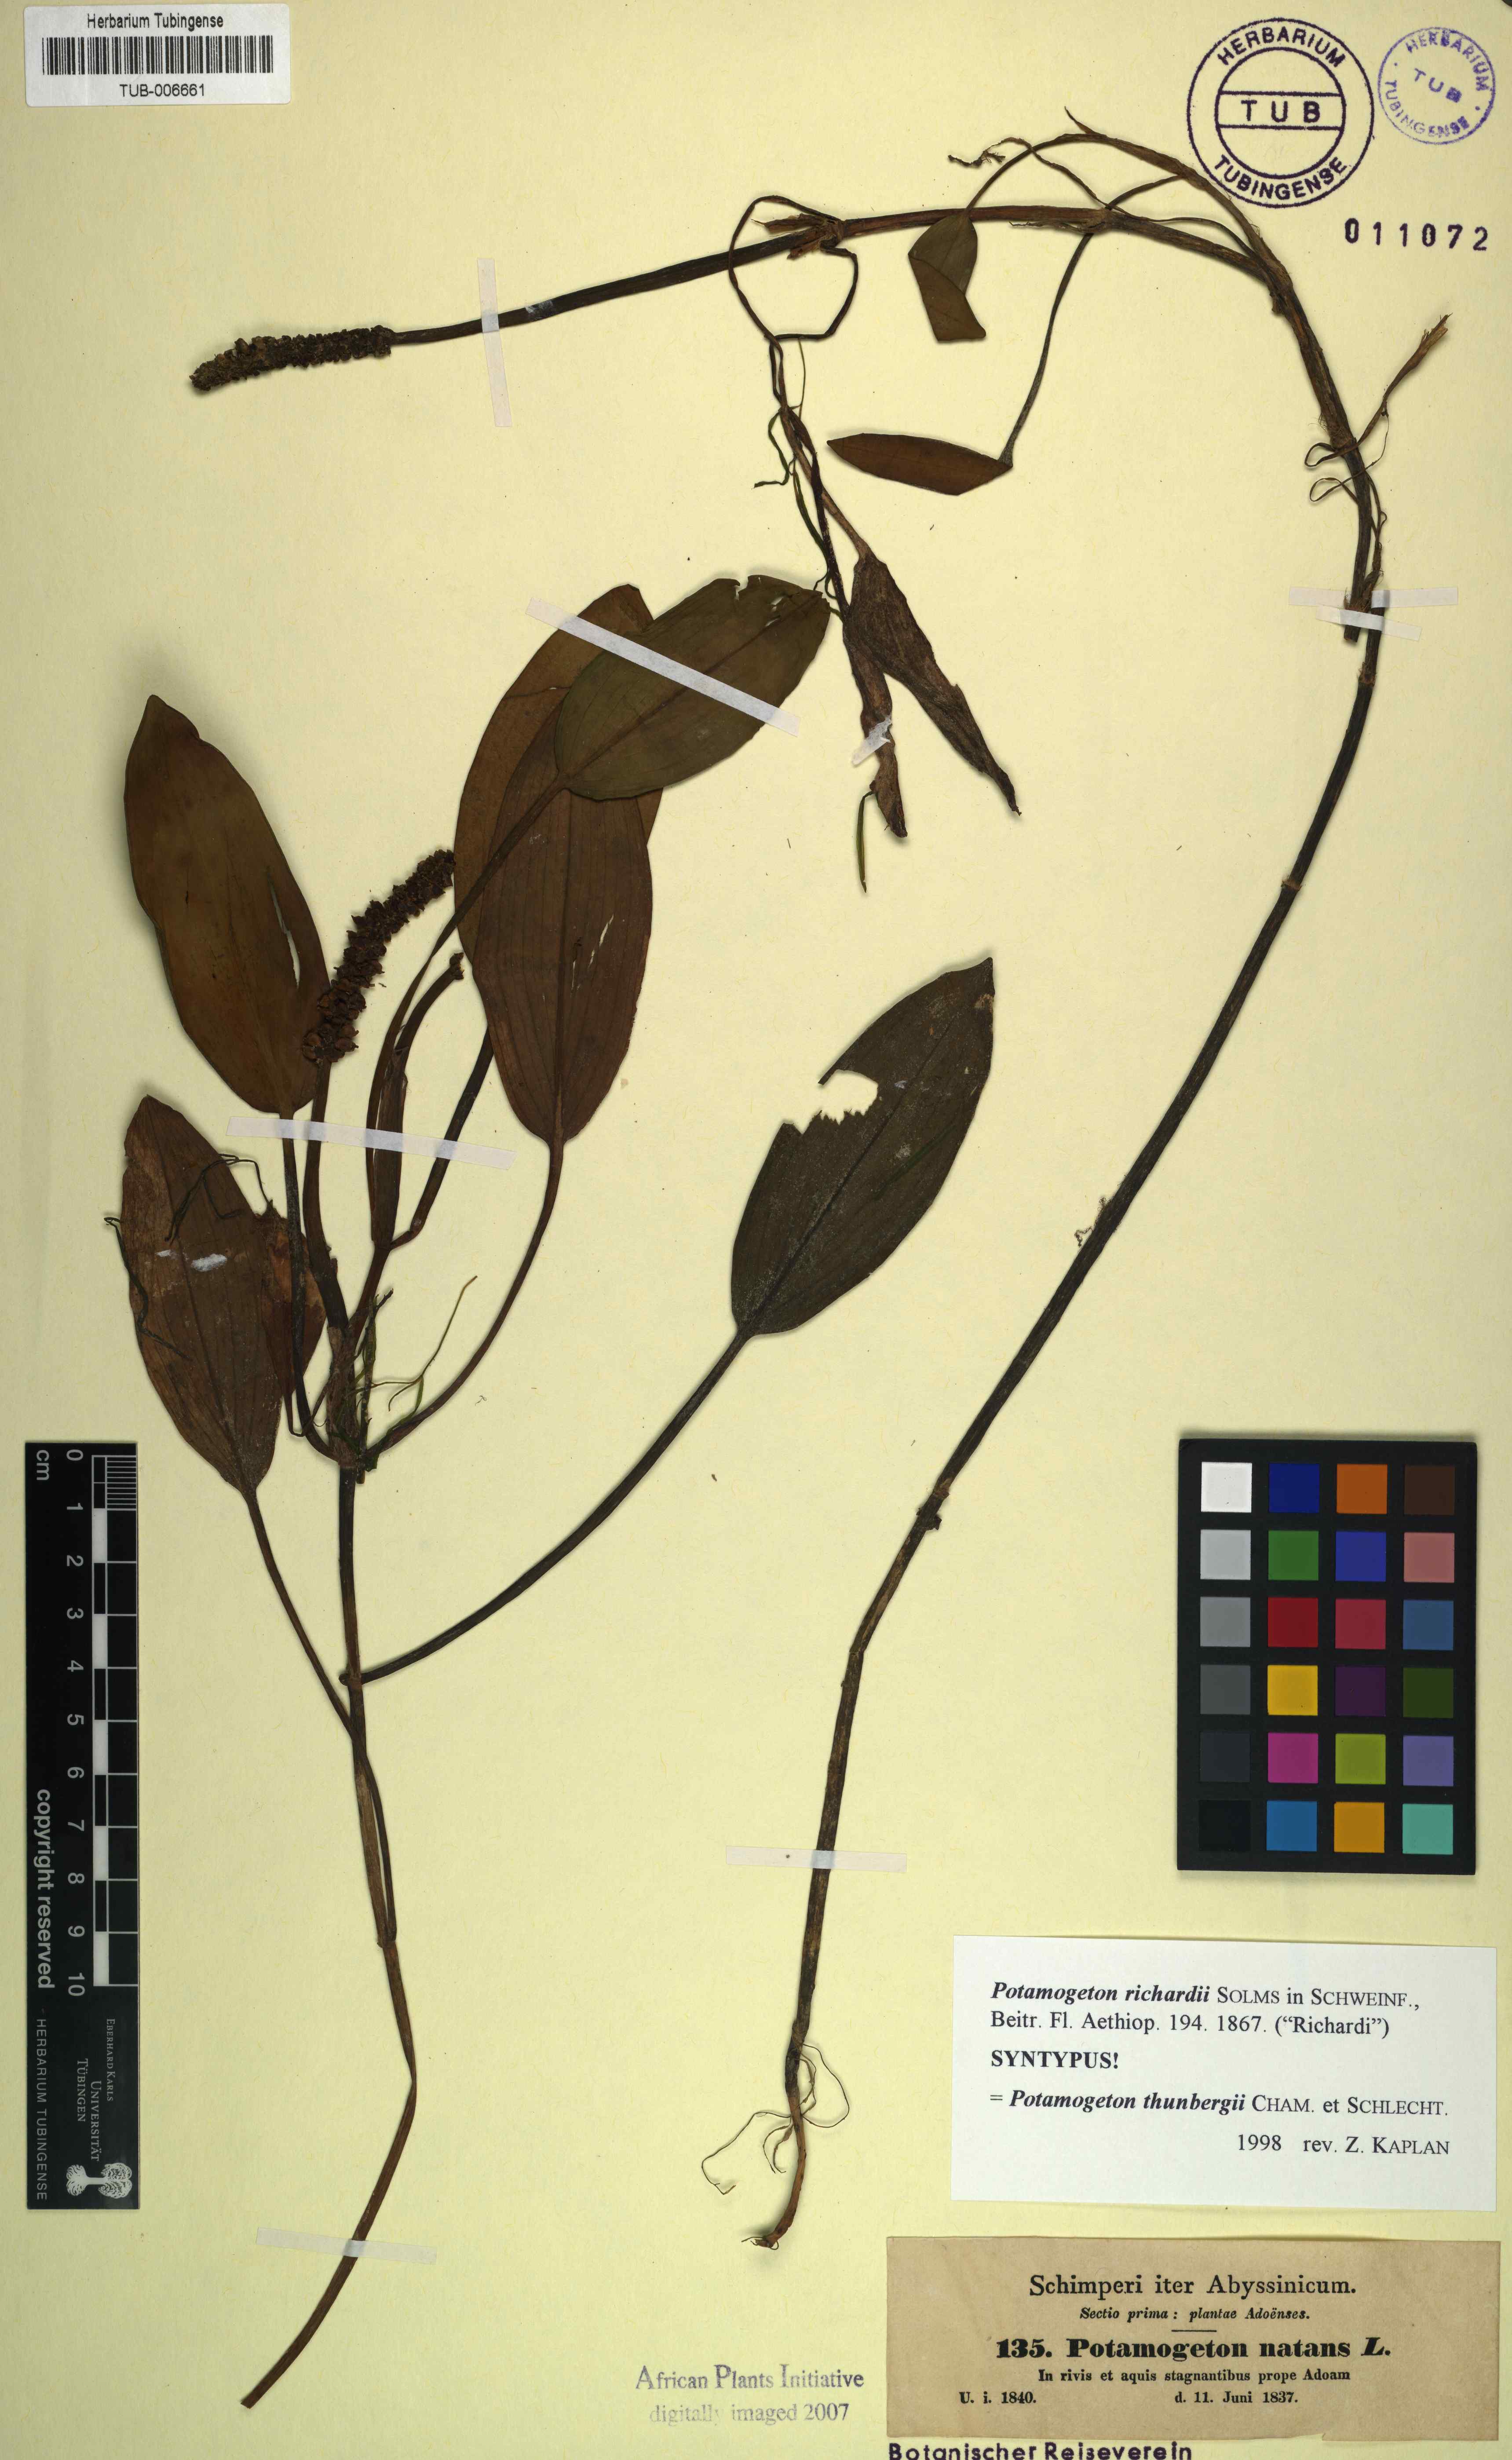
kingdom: Plantae
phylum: Tracheophyta
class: Liliopsida
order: Alismatales
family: Potamogetonaceae
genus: Potamogeton
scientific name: Potamogeton richardii
